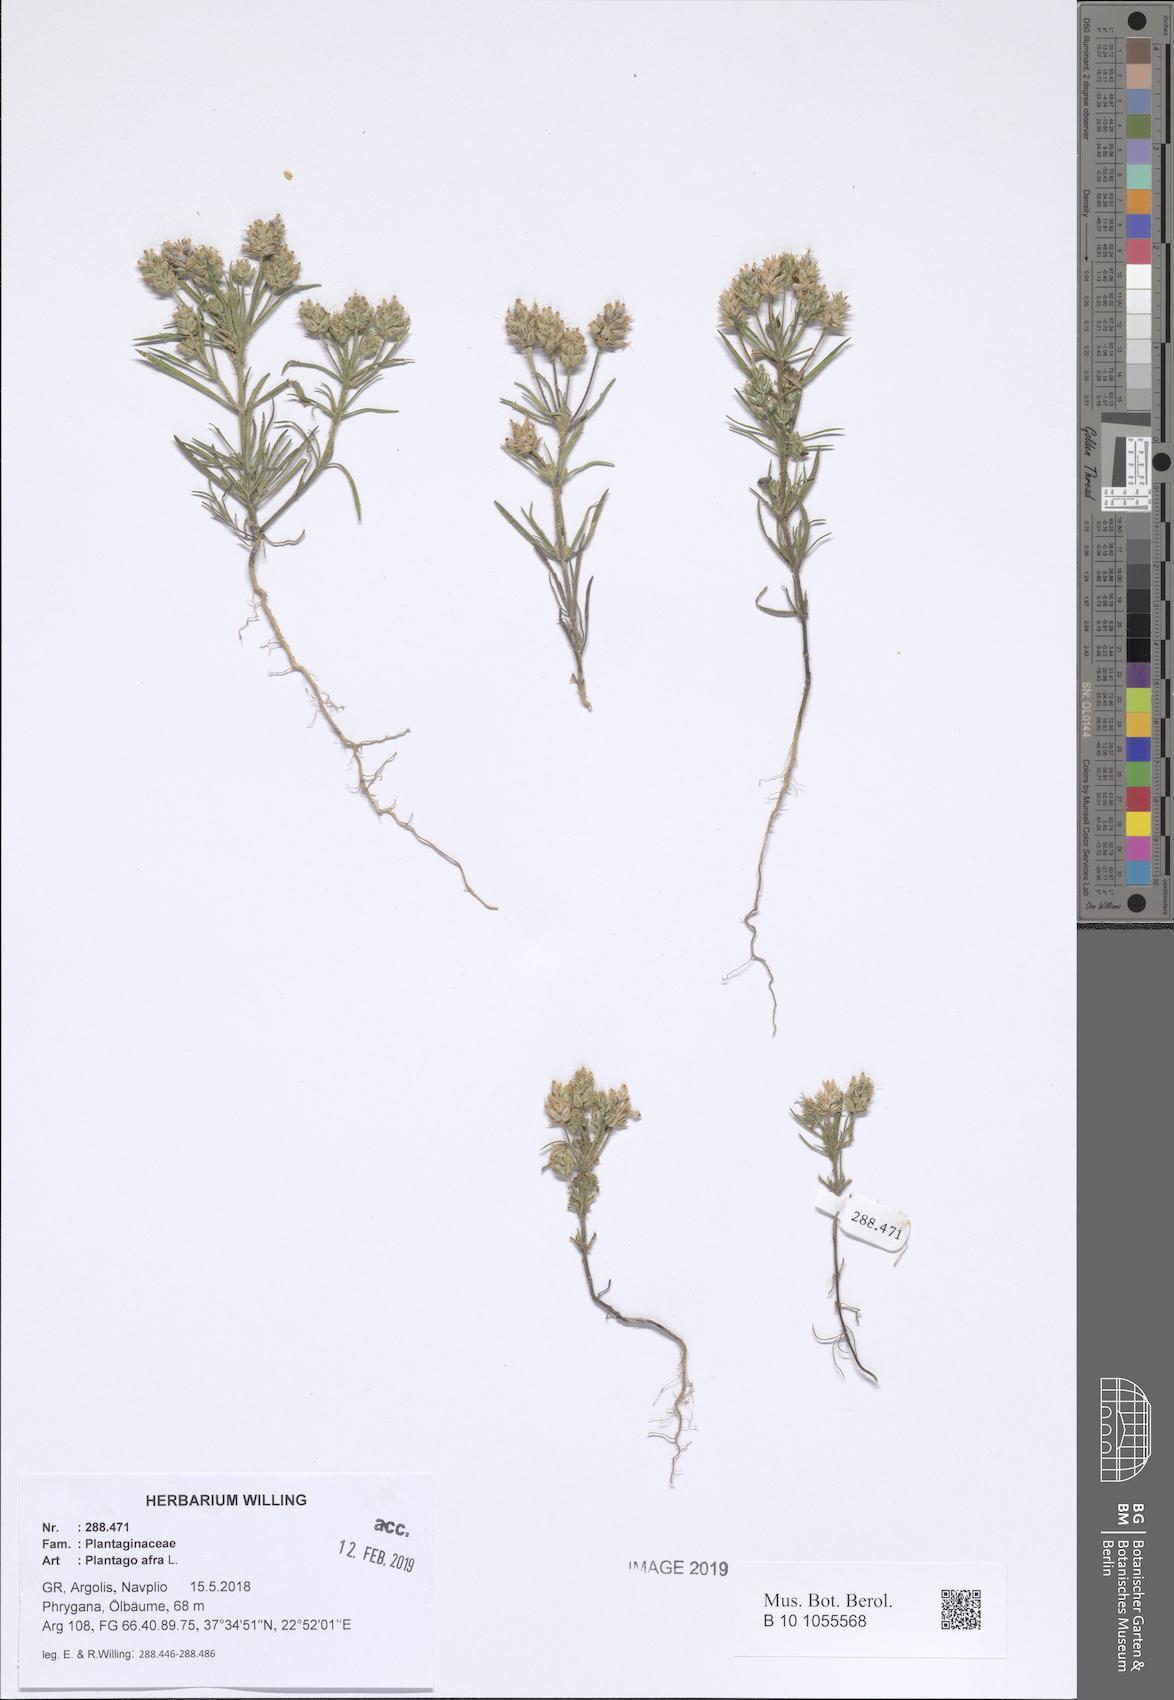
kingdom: Plantae
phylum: Tracheophyta
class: Magnoliopsida
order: Lamiales
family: Plantaginaceae
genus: Plantago
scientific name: Plantago afra
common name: Glandular plantain
